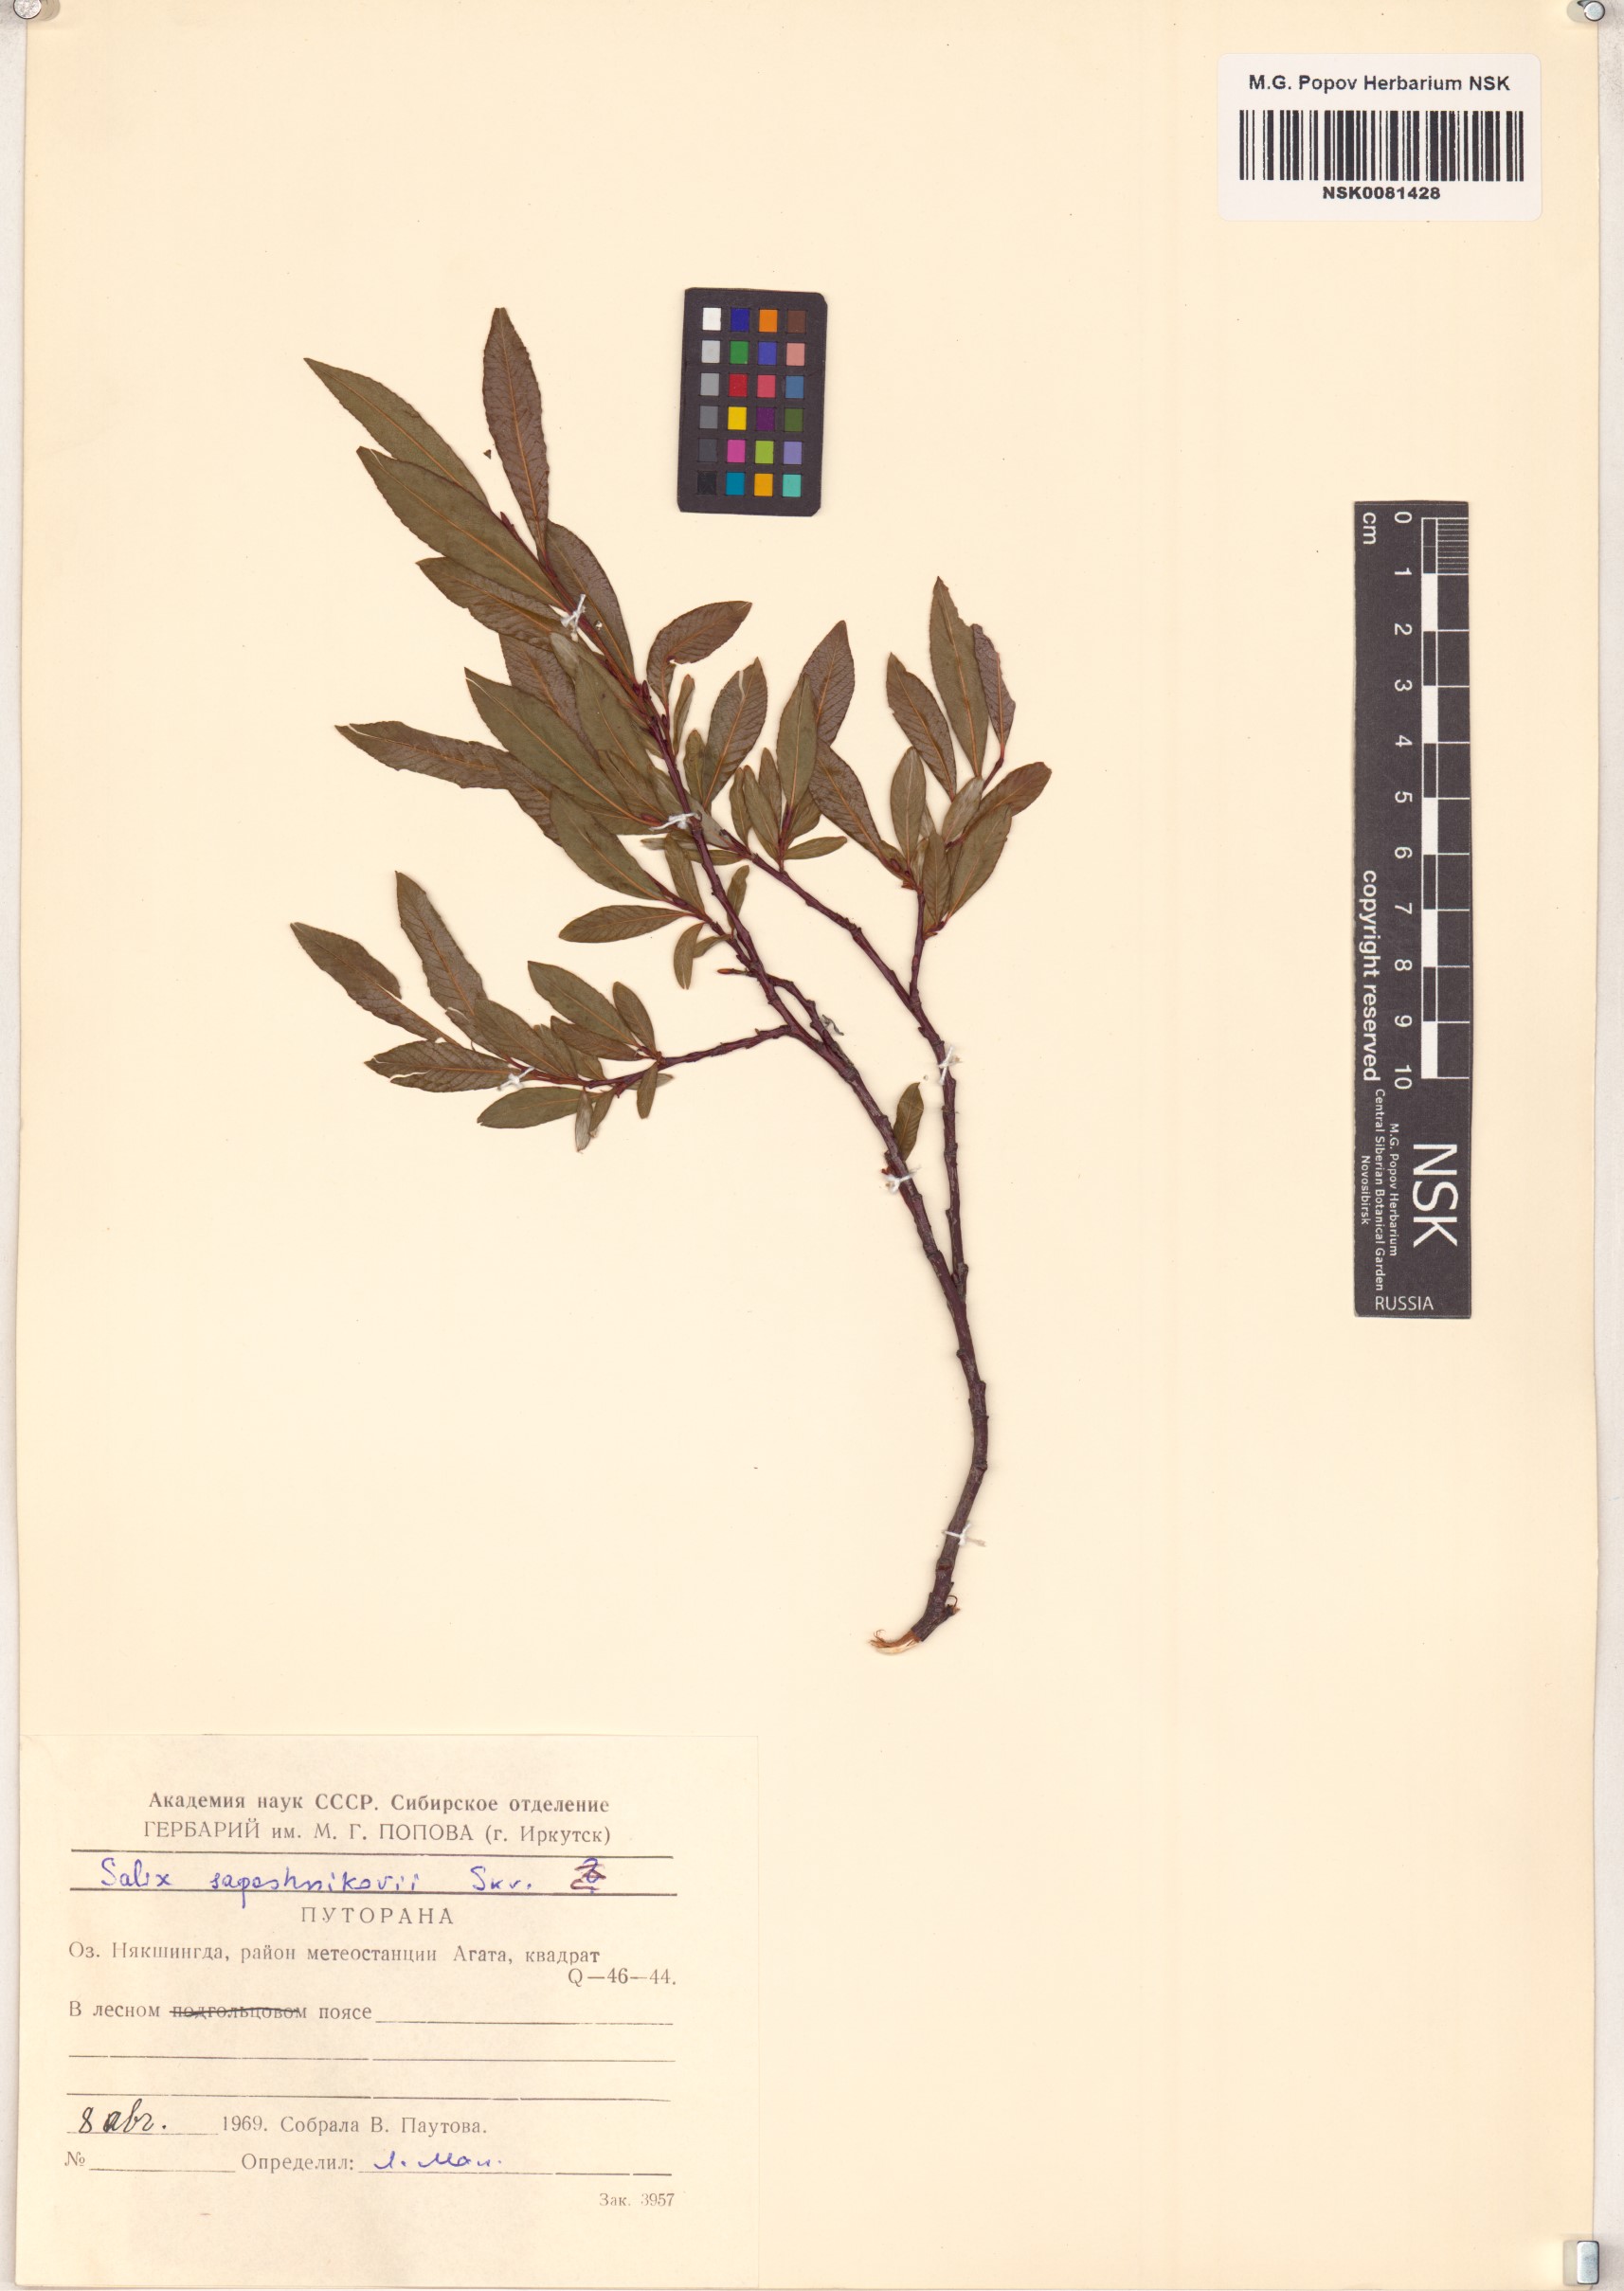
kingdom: Plantae
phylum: Tracheophyta
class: Magnoliopsida
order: Malpighiales
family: Salicaceae
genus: Salix
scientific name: Salix saposhnikovii
